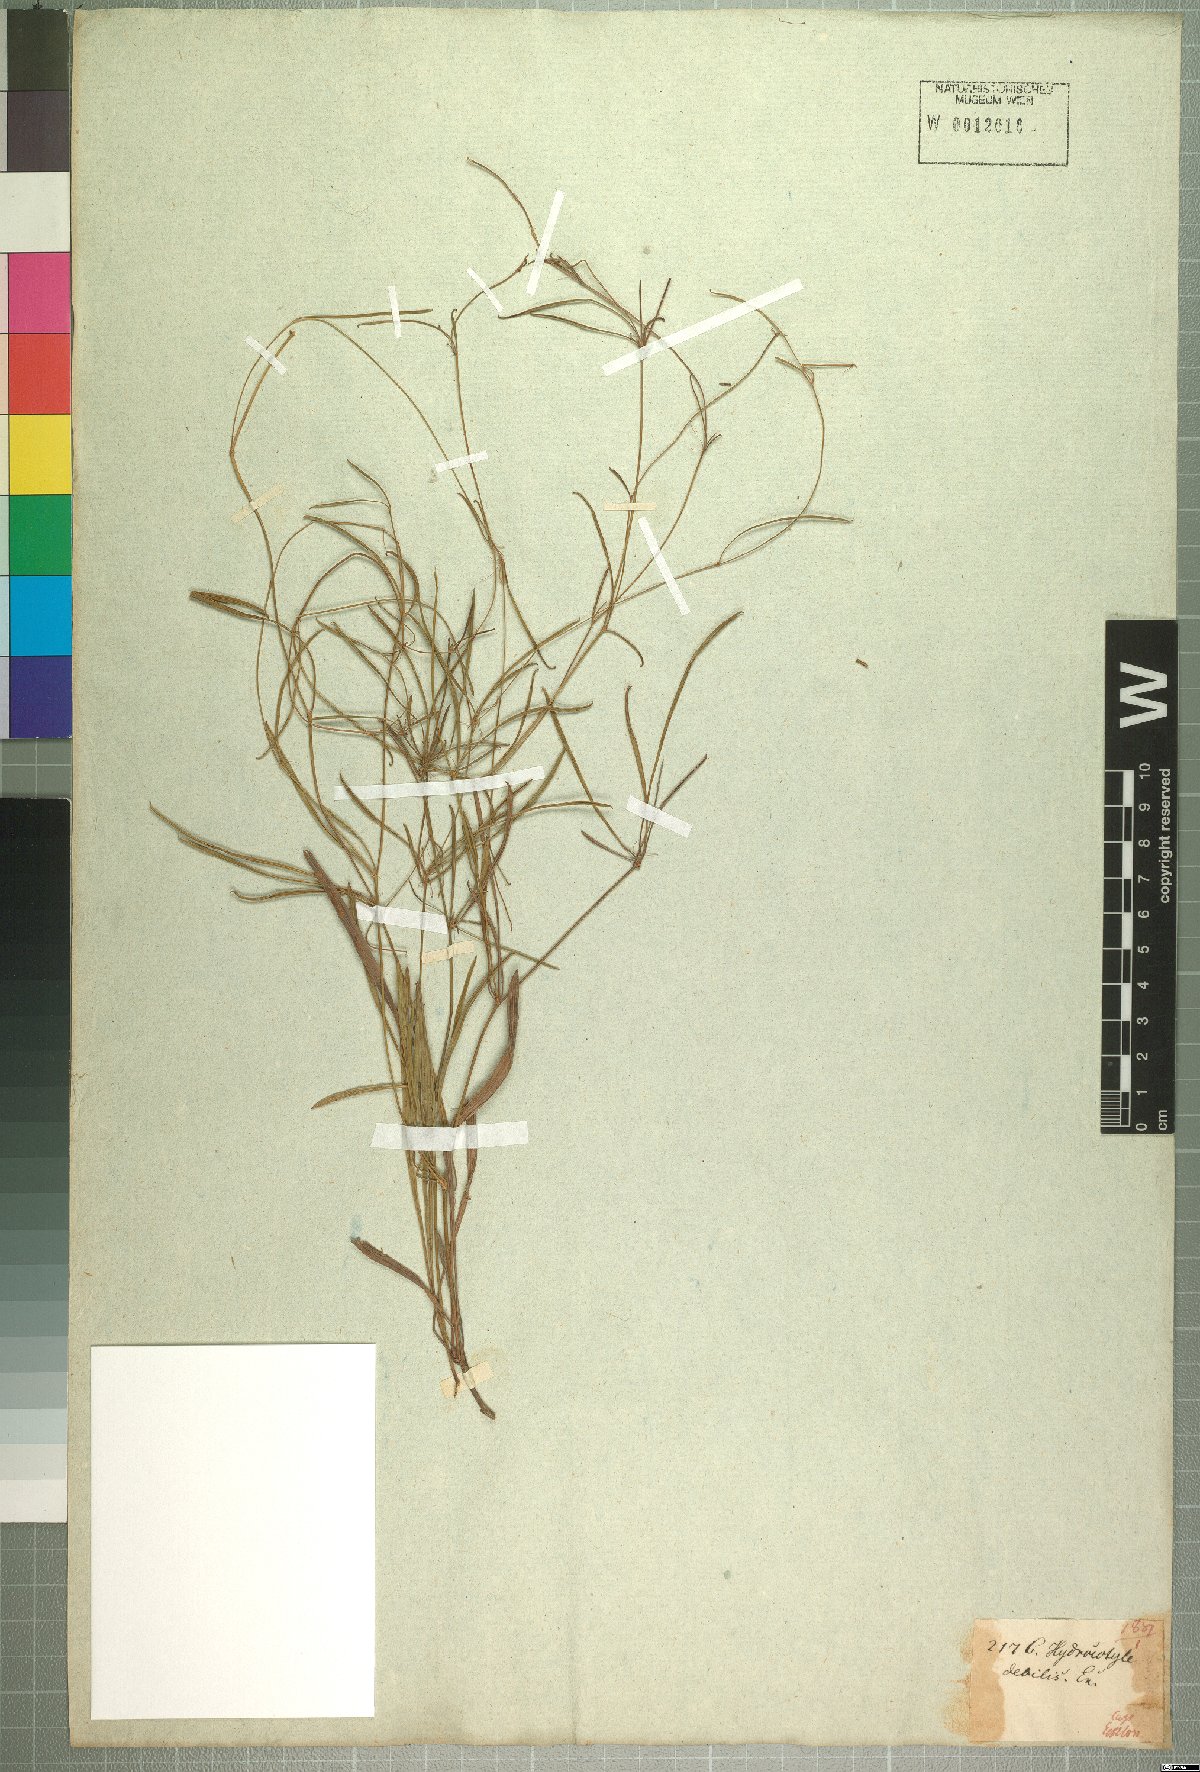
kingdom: Plantae
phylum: Tracheophyta
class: Magnoliopsida
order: Apiales
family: Apiaceae
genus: Centella
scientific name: Centella debilis
